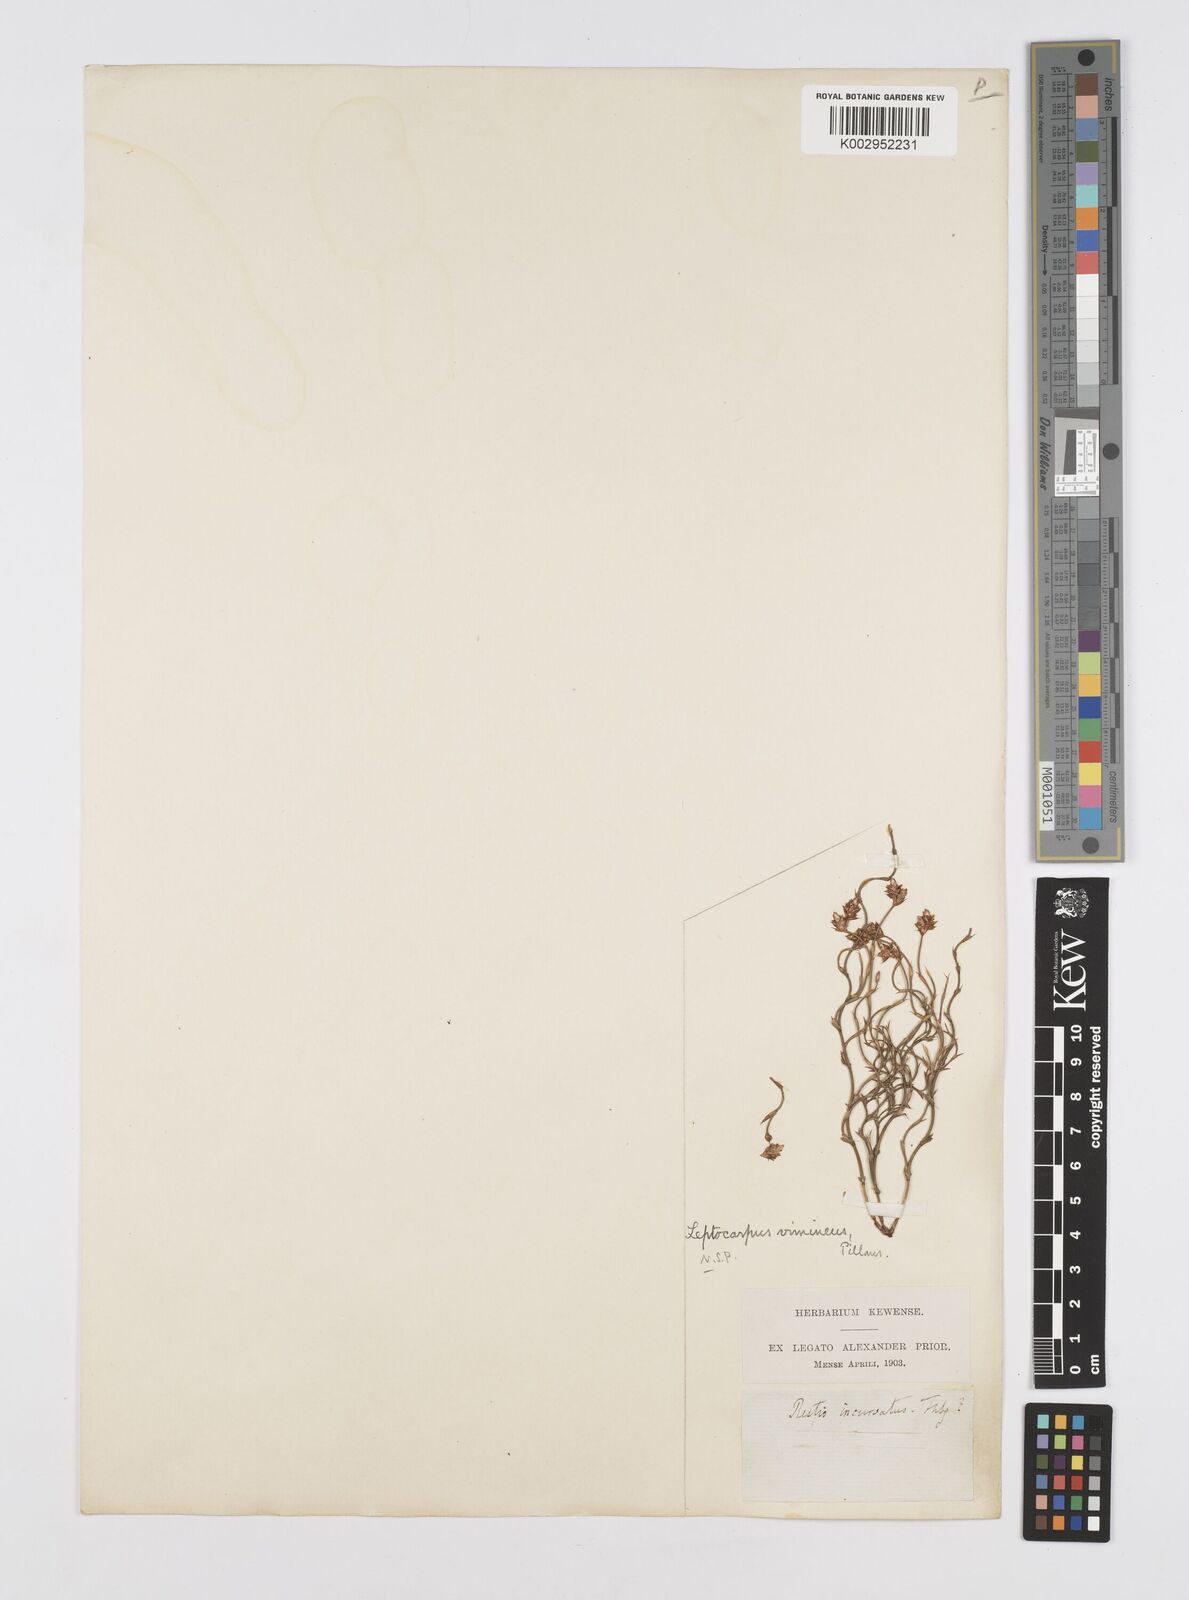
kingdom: Plantae
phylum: Tracheophyta
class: Liliopsida
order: Poales
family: Restionaceae
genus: Restio
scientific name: Restio vimineus
